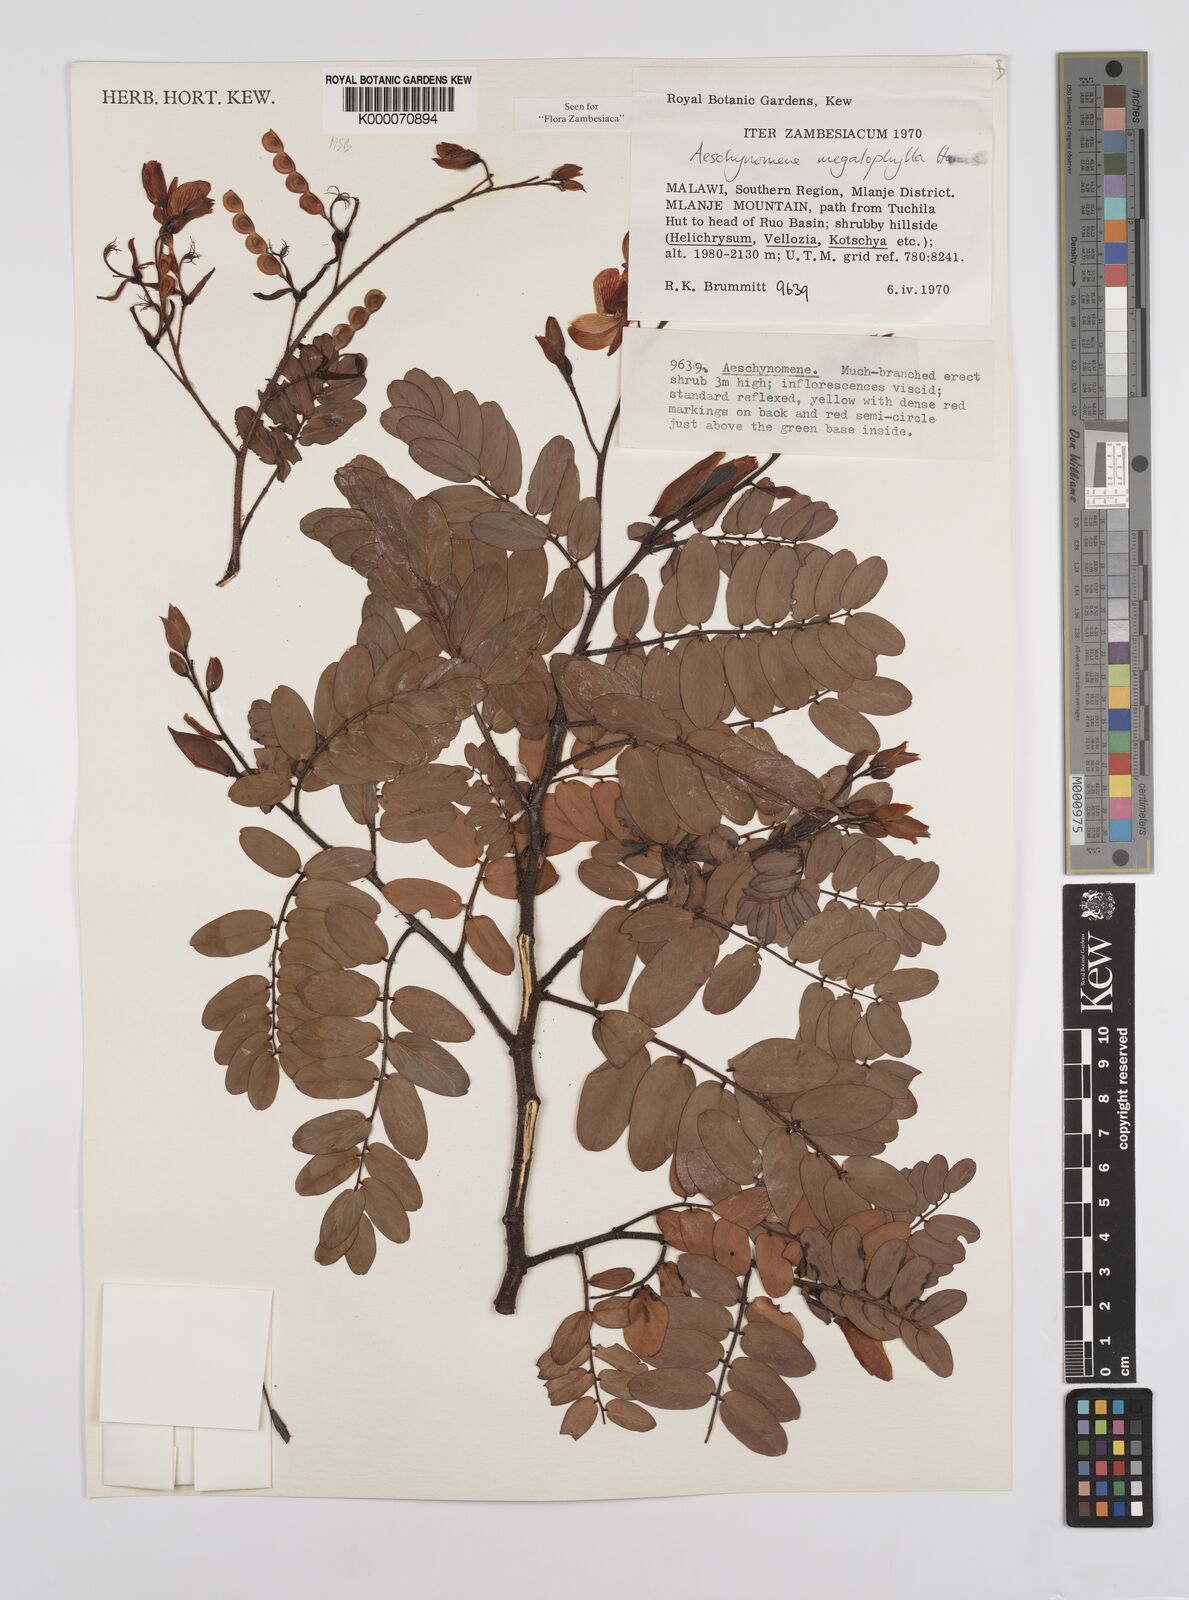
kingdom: Plantae
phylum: Tracheophyta
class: Magnoliopsida
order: Fabales
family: Fabaceae
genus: Aeschynomene
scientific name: Aeschynomene megalophylla
